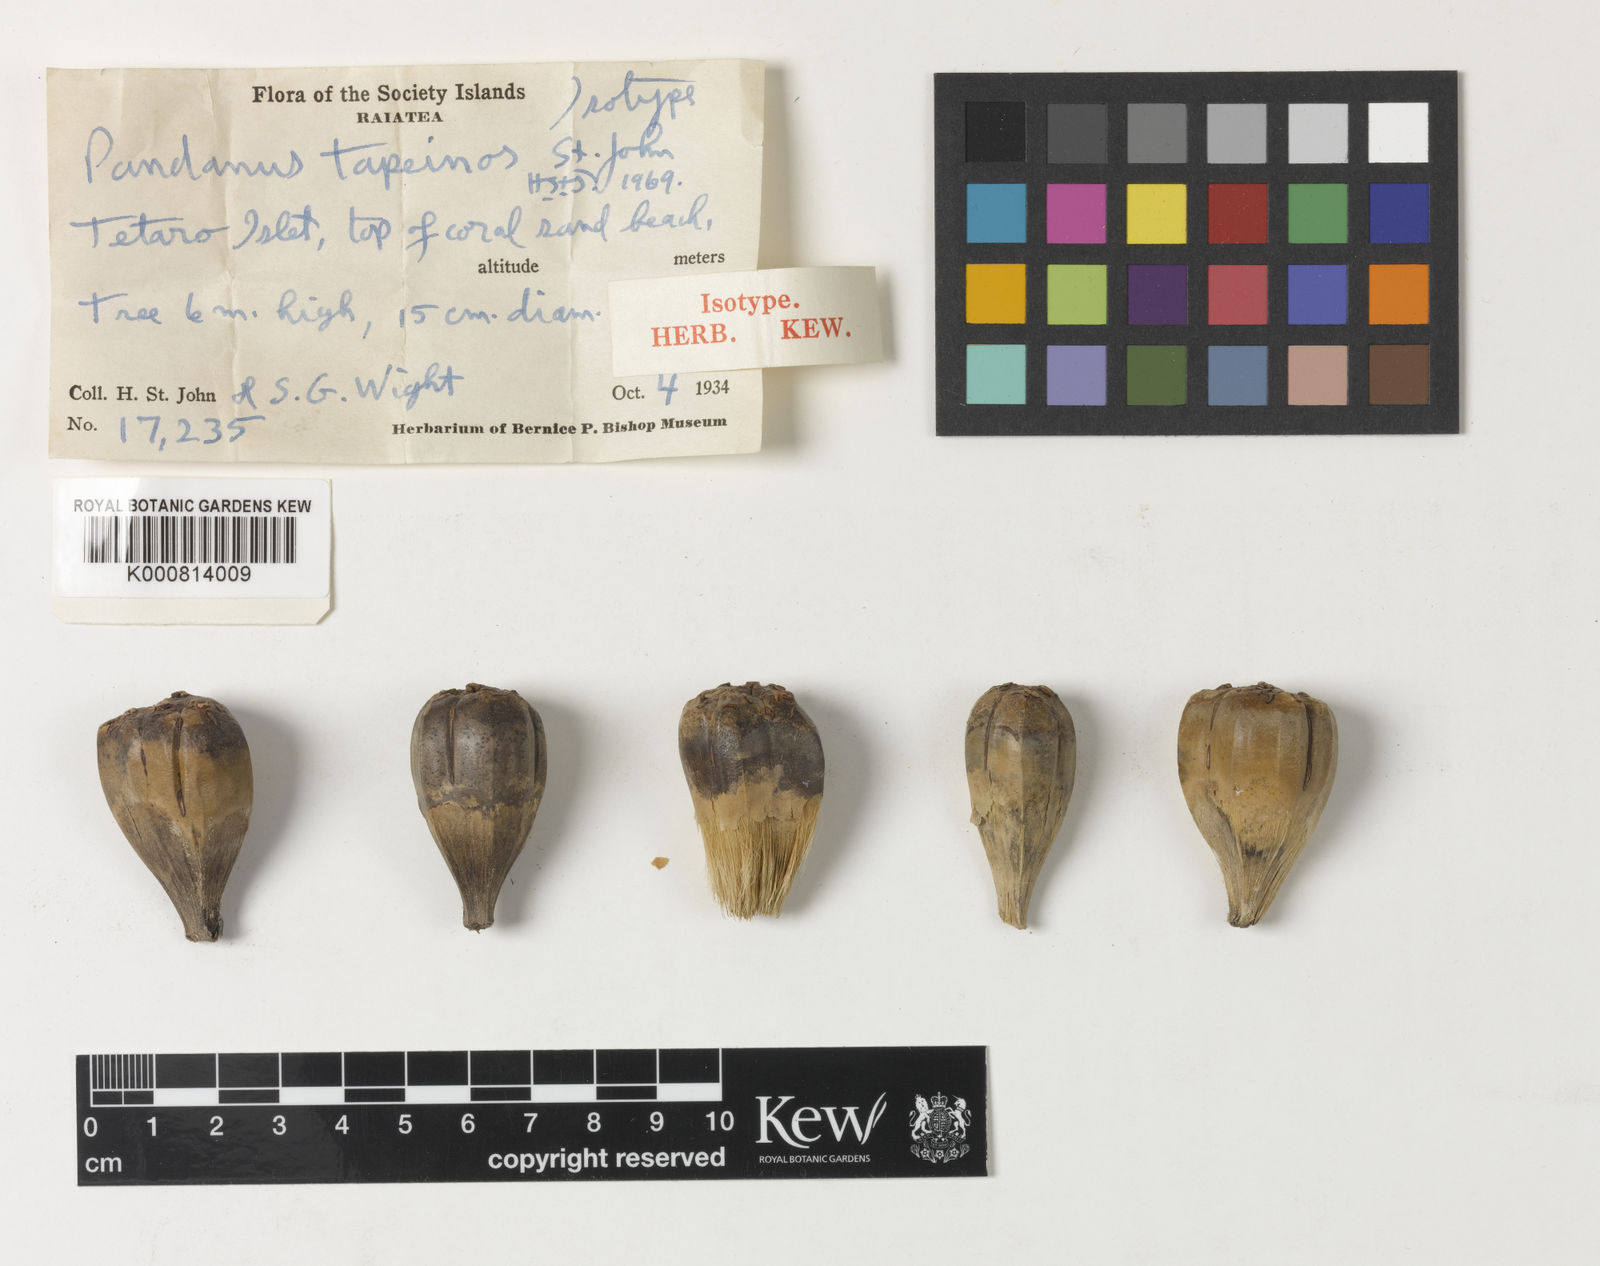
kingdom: Plantae
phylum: Tracheophyta
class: Liliopsida
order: Pandanales
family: Pandanaceae
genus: Pandanus
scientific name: Pandanus tectorius
